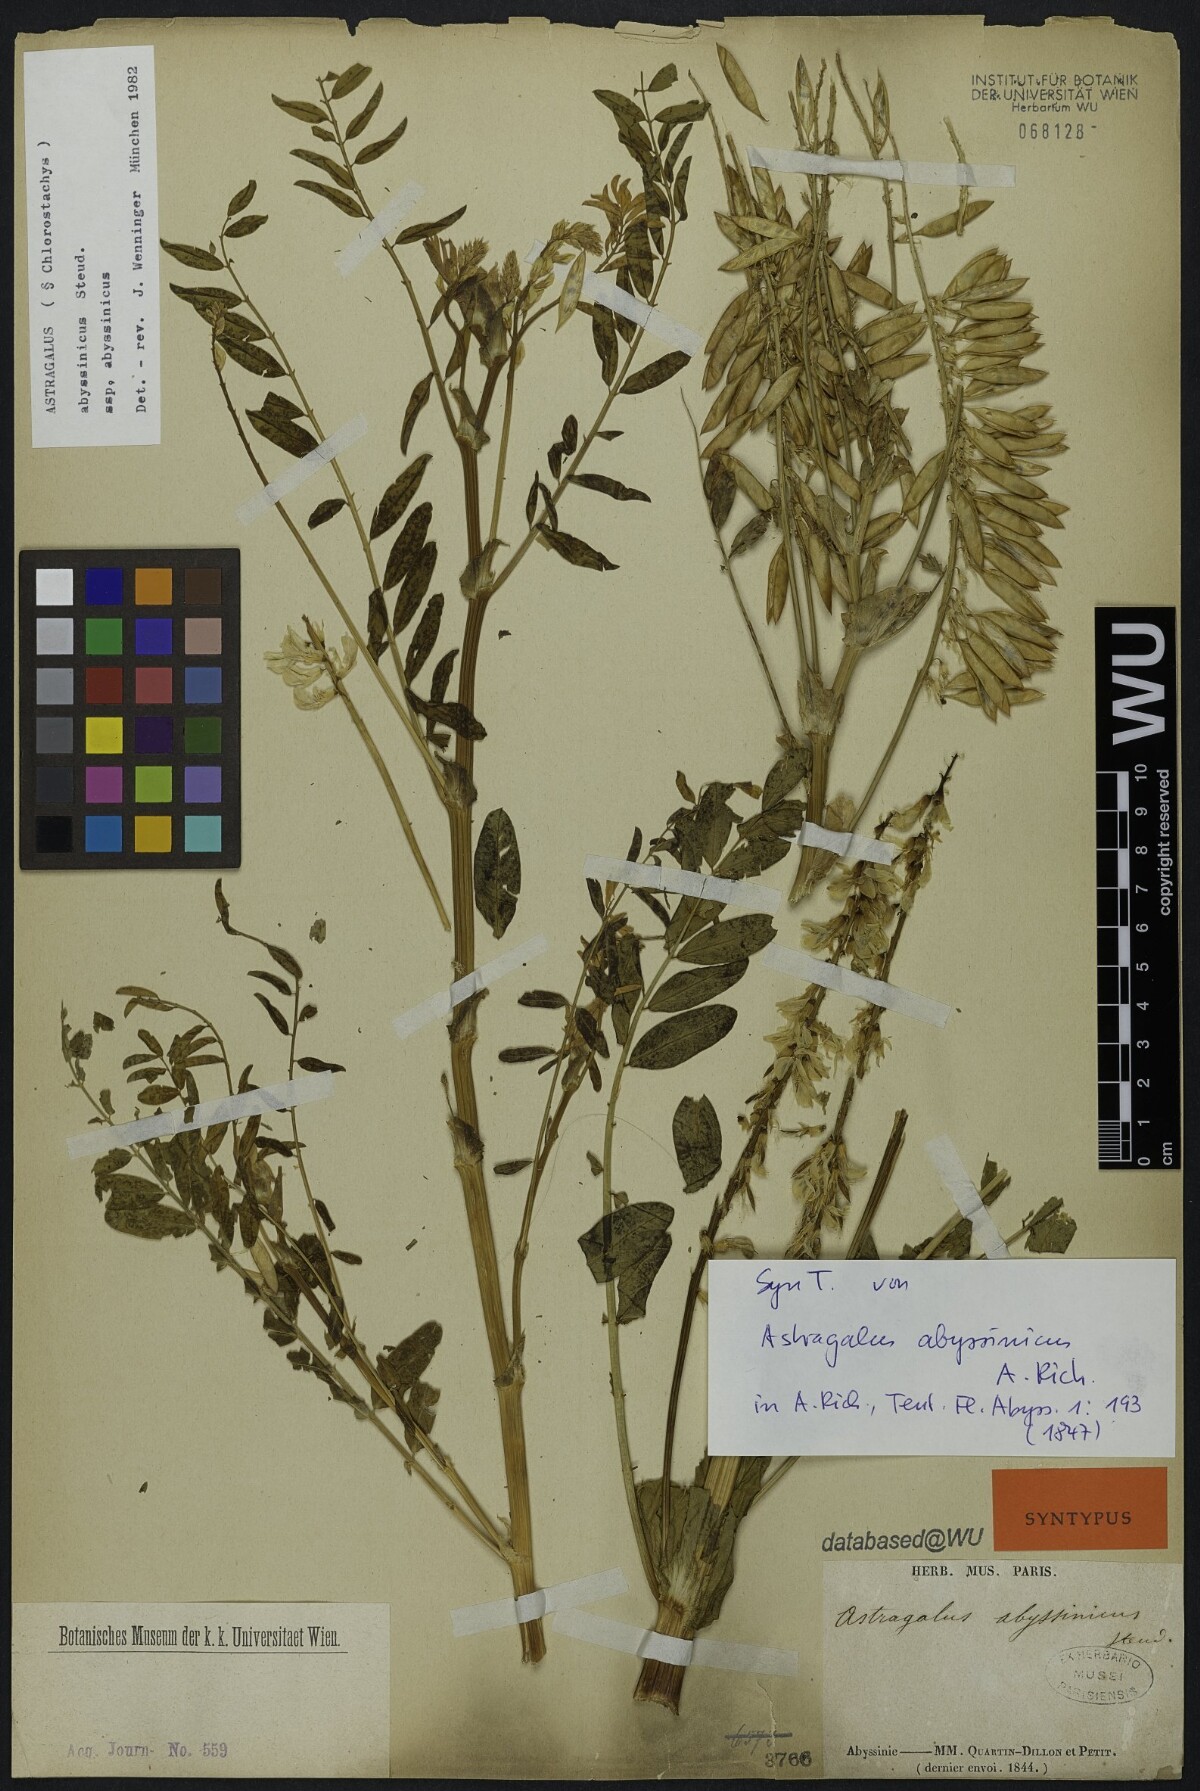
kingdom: Plantae
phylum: Tracheophyta
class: Magnoliopsida
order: Fabales
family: Fabaceae
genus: Astragalus
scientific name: Astragalus atropilosulus
